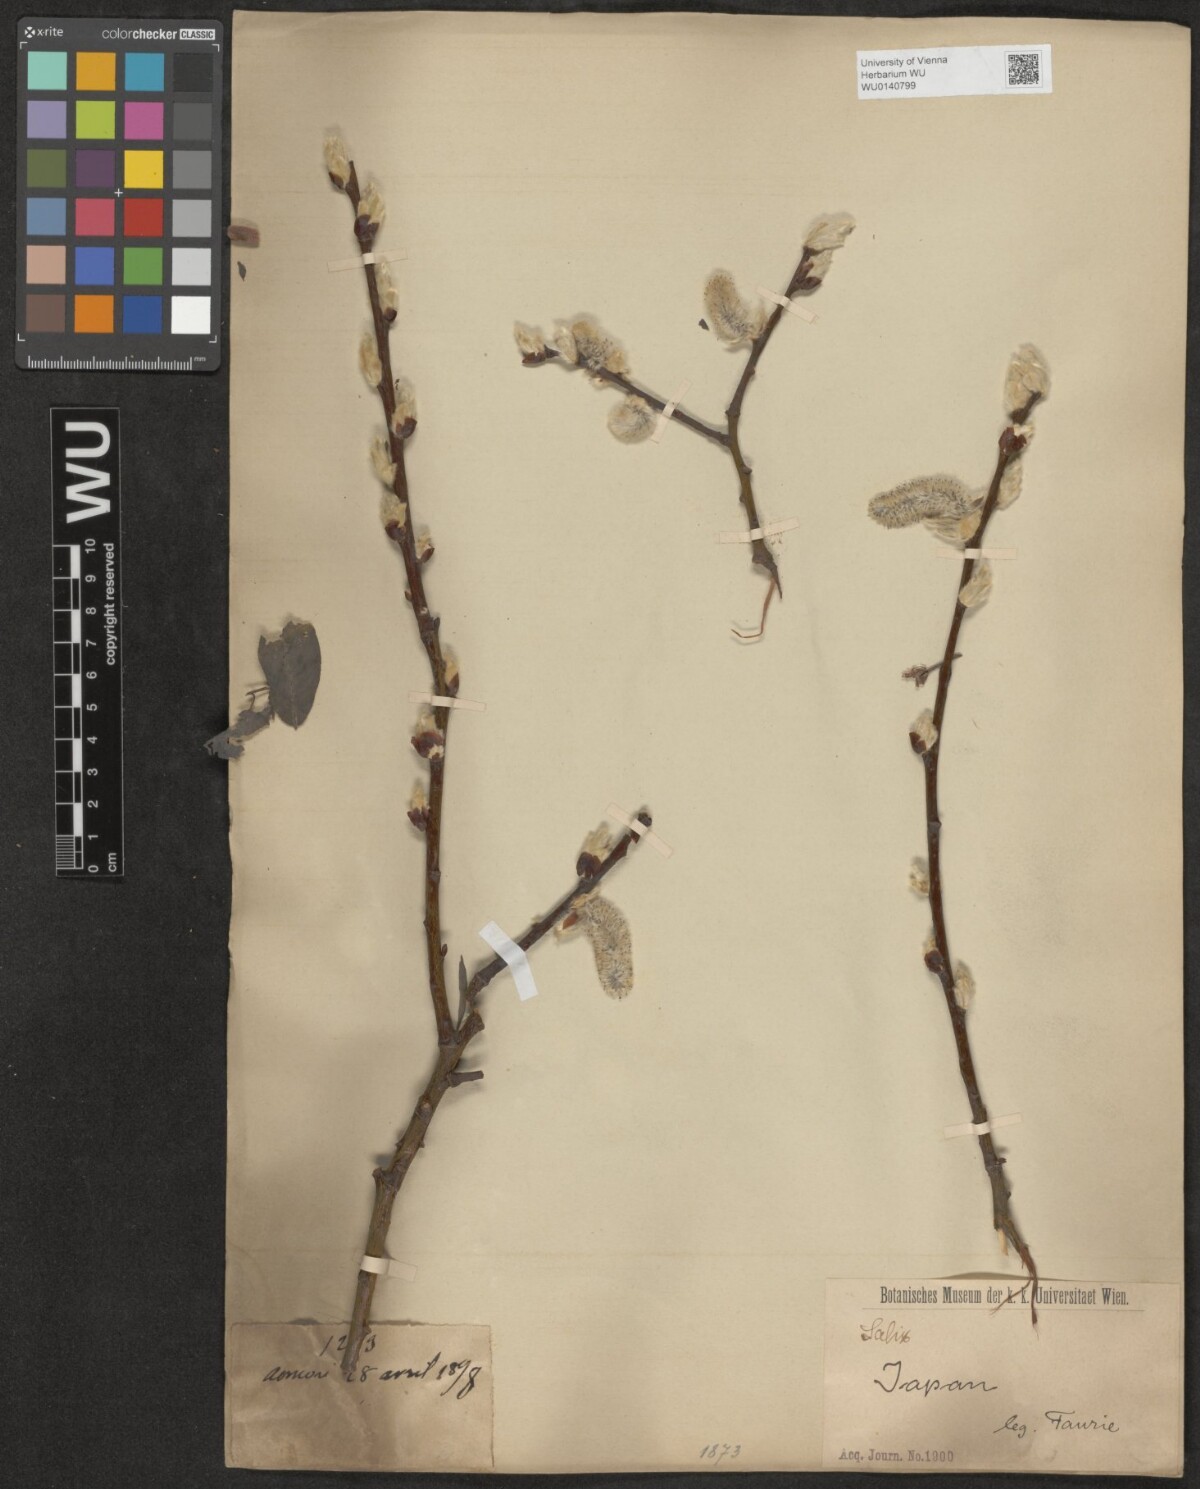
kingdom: Plantae
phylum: Tracheophyta
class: Magnoliopsida
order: Malpighiales
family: Salicaceae
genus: Salix
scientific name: Salix
